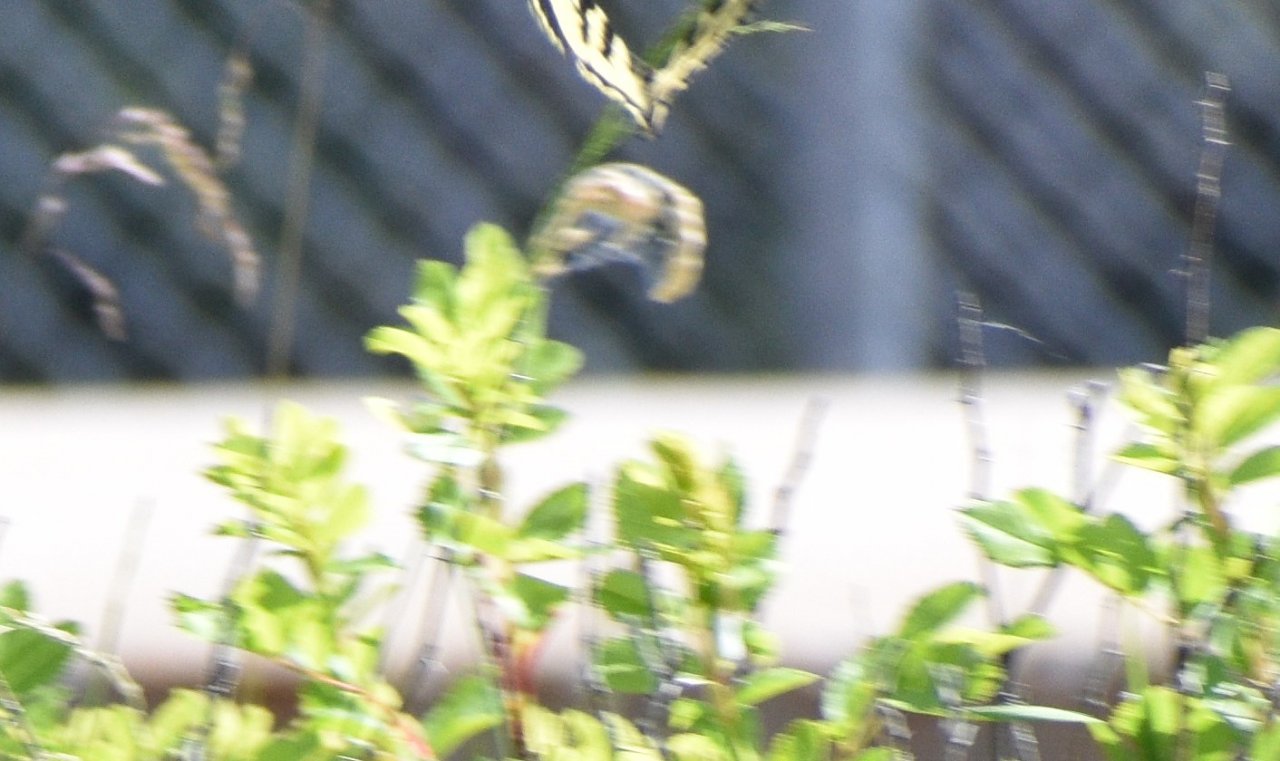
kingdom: Animalia
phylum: Arthropoda
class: Insecta
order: Lepidoptera
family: Papilionidae
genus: Pterourus
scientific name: Pterourus canadensis
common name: Canadian Tiger Swallowtail
